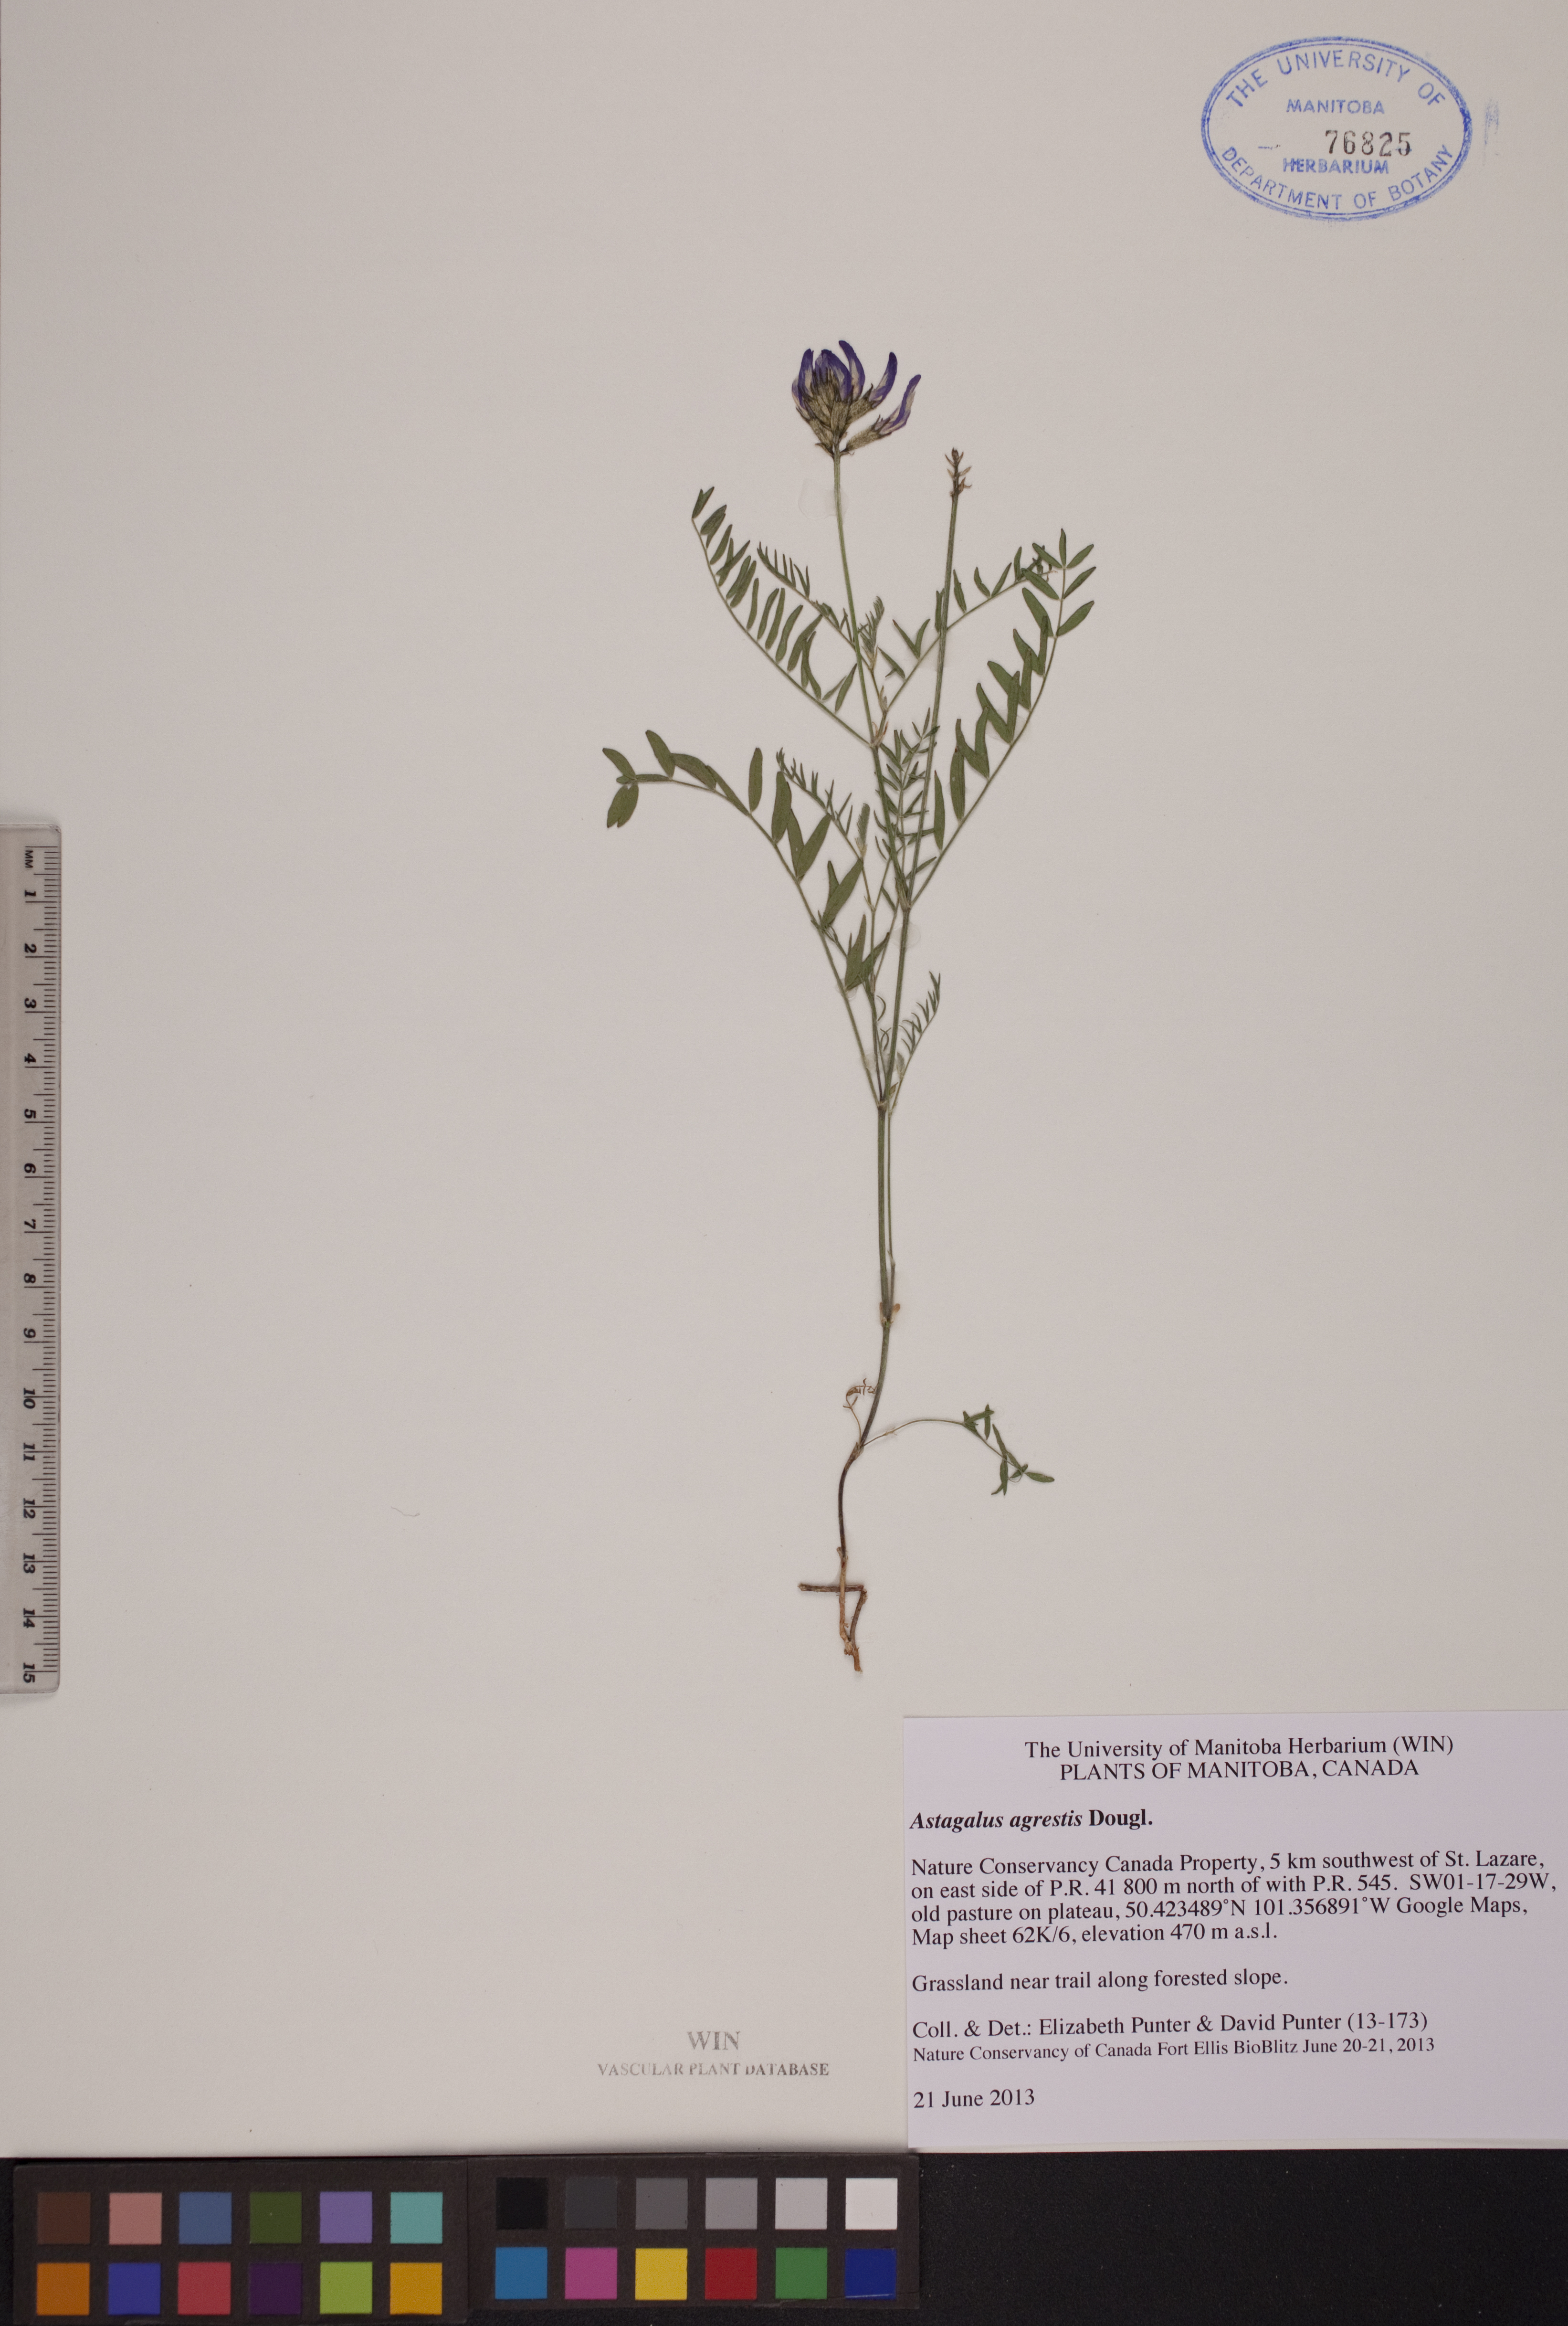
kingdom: Plantae
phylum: Tracheophyta
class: Magnoliopsida
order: Fabales
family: Fabaceae
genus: Astragalus
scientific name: Astragalus agrestis
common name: Field milk-vetch
